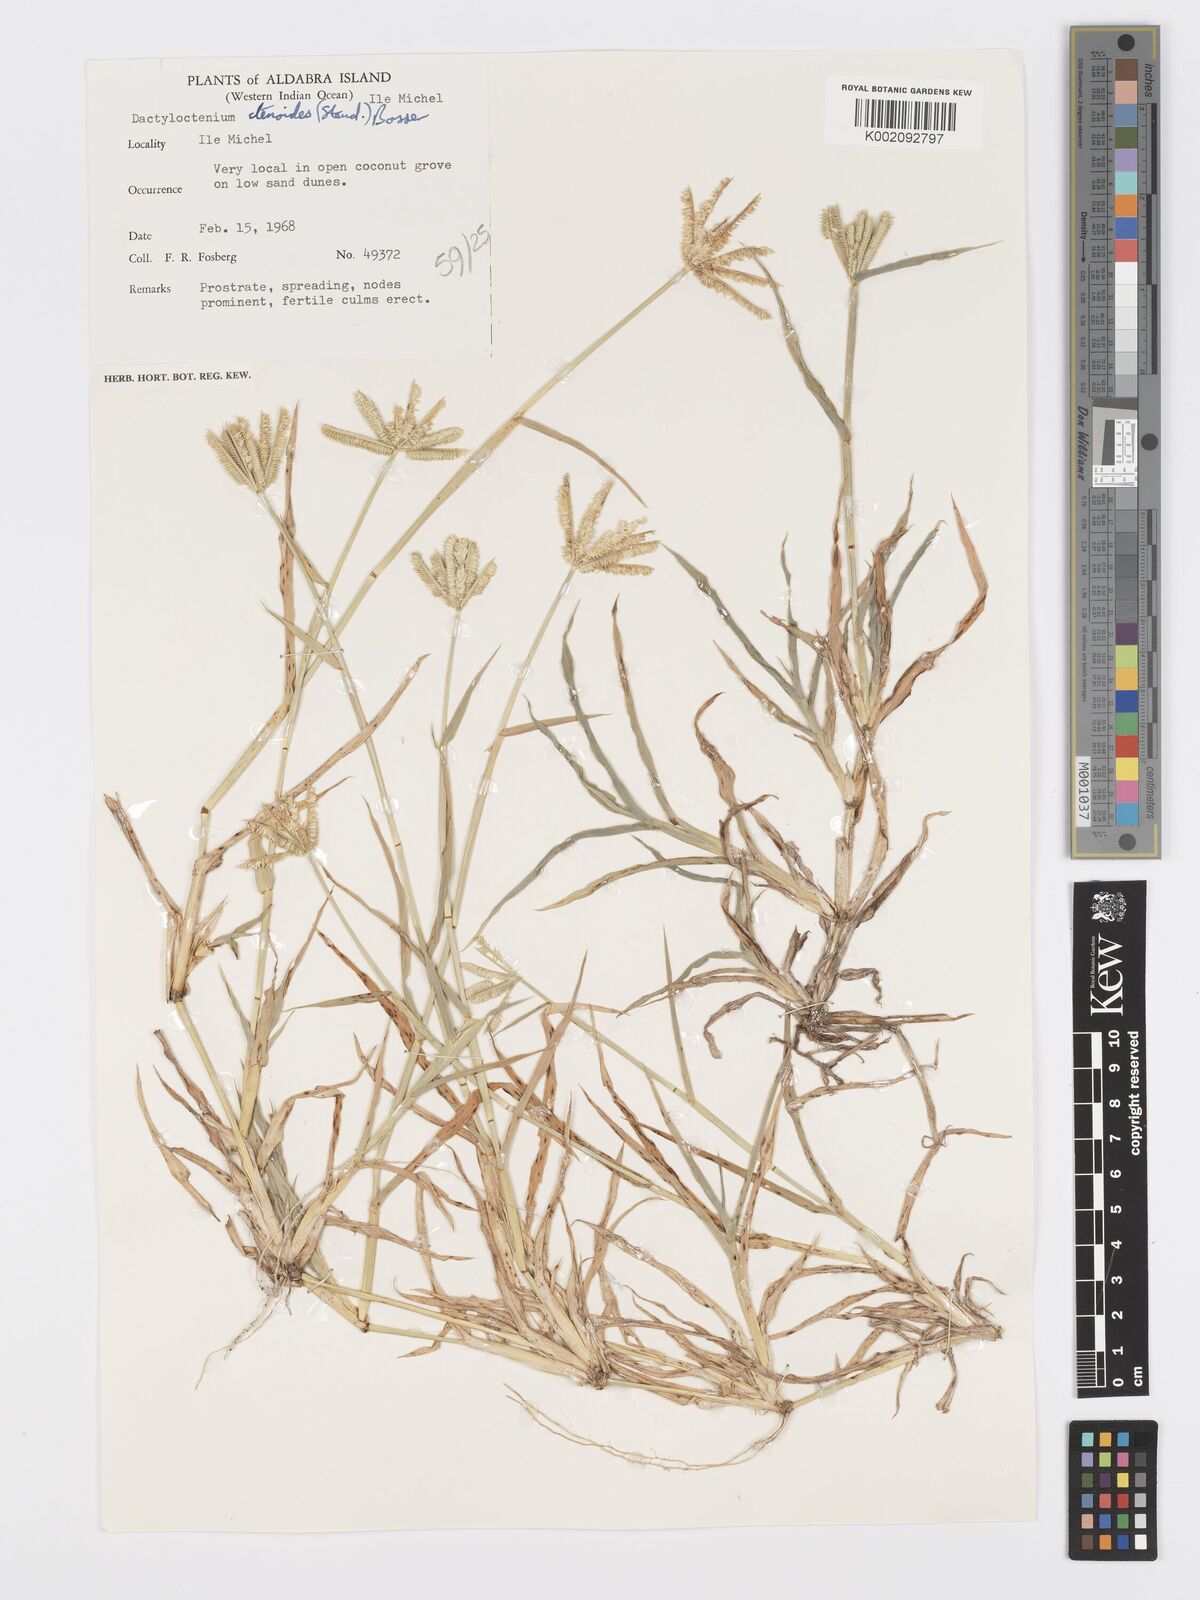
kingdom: Plantae
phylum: Tracheophyta
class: Liliopsida
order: Poales
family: Poaceae
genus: Dactyloctenium
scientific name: Dactyloctenium ctenoides
